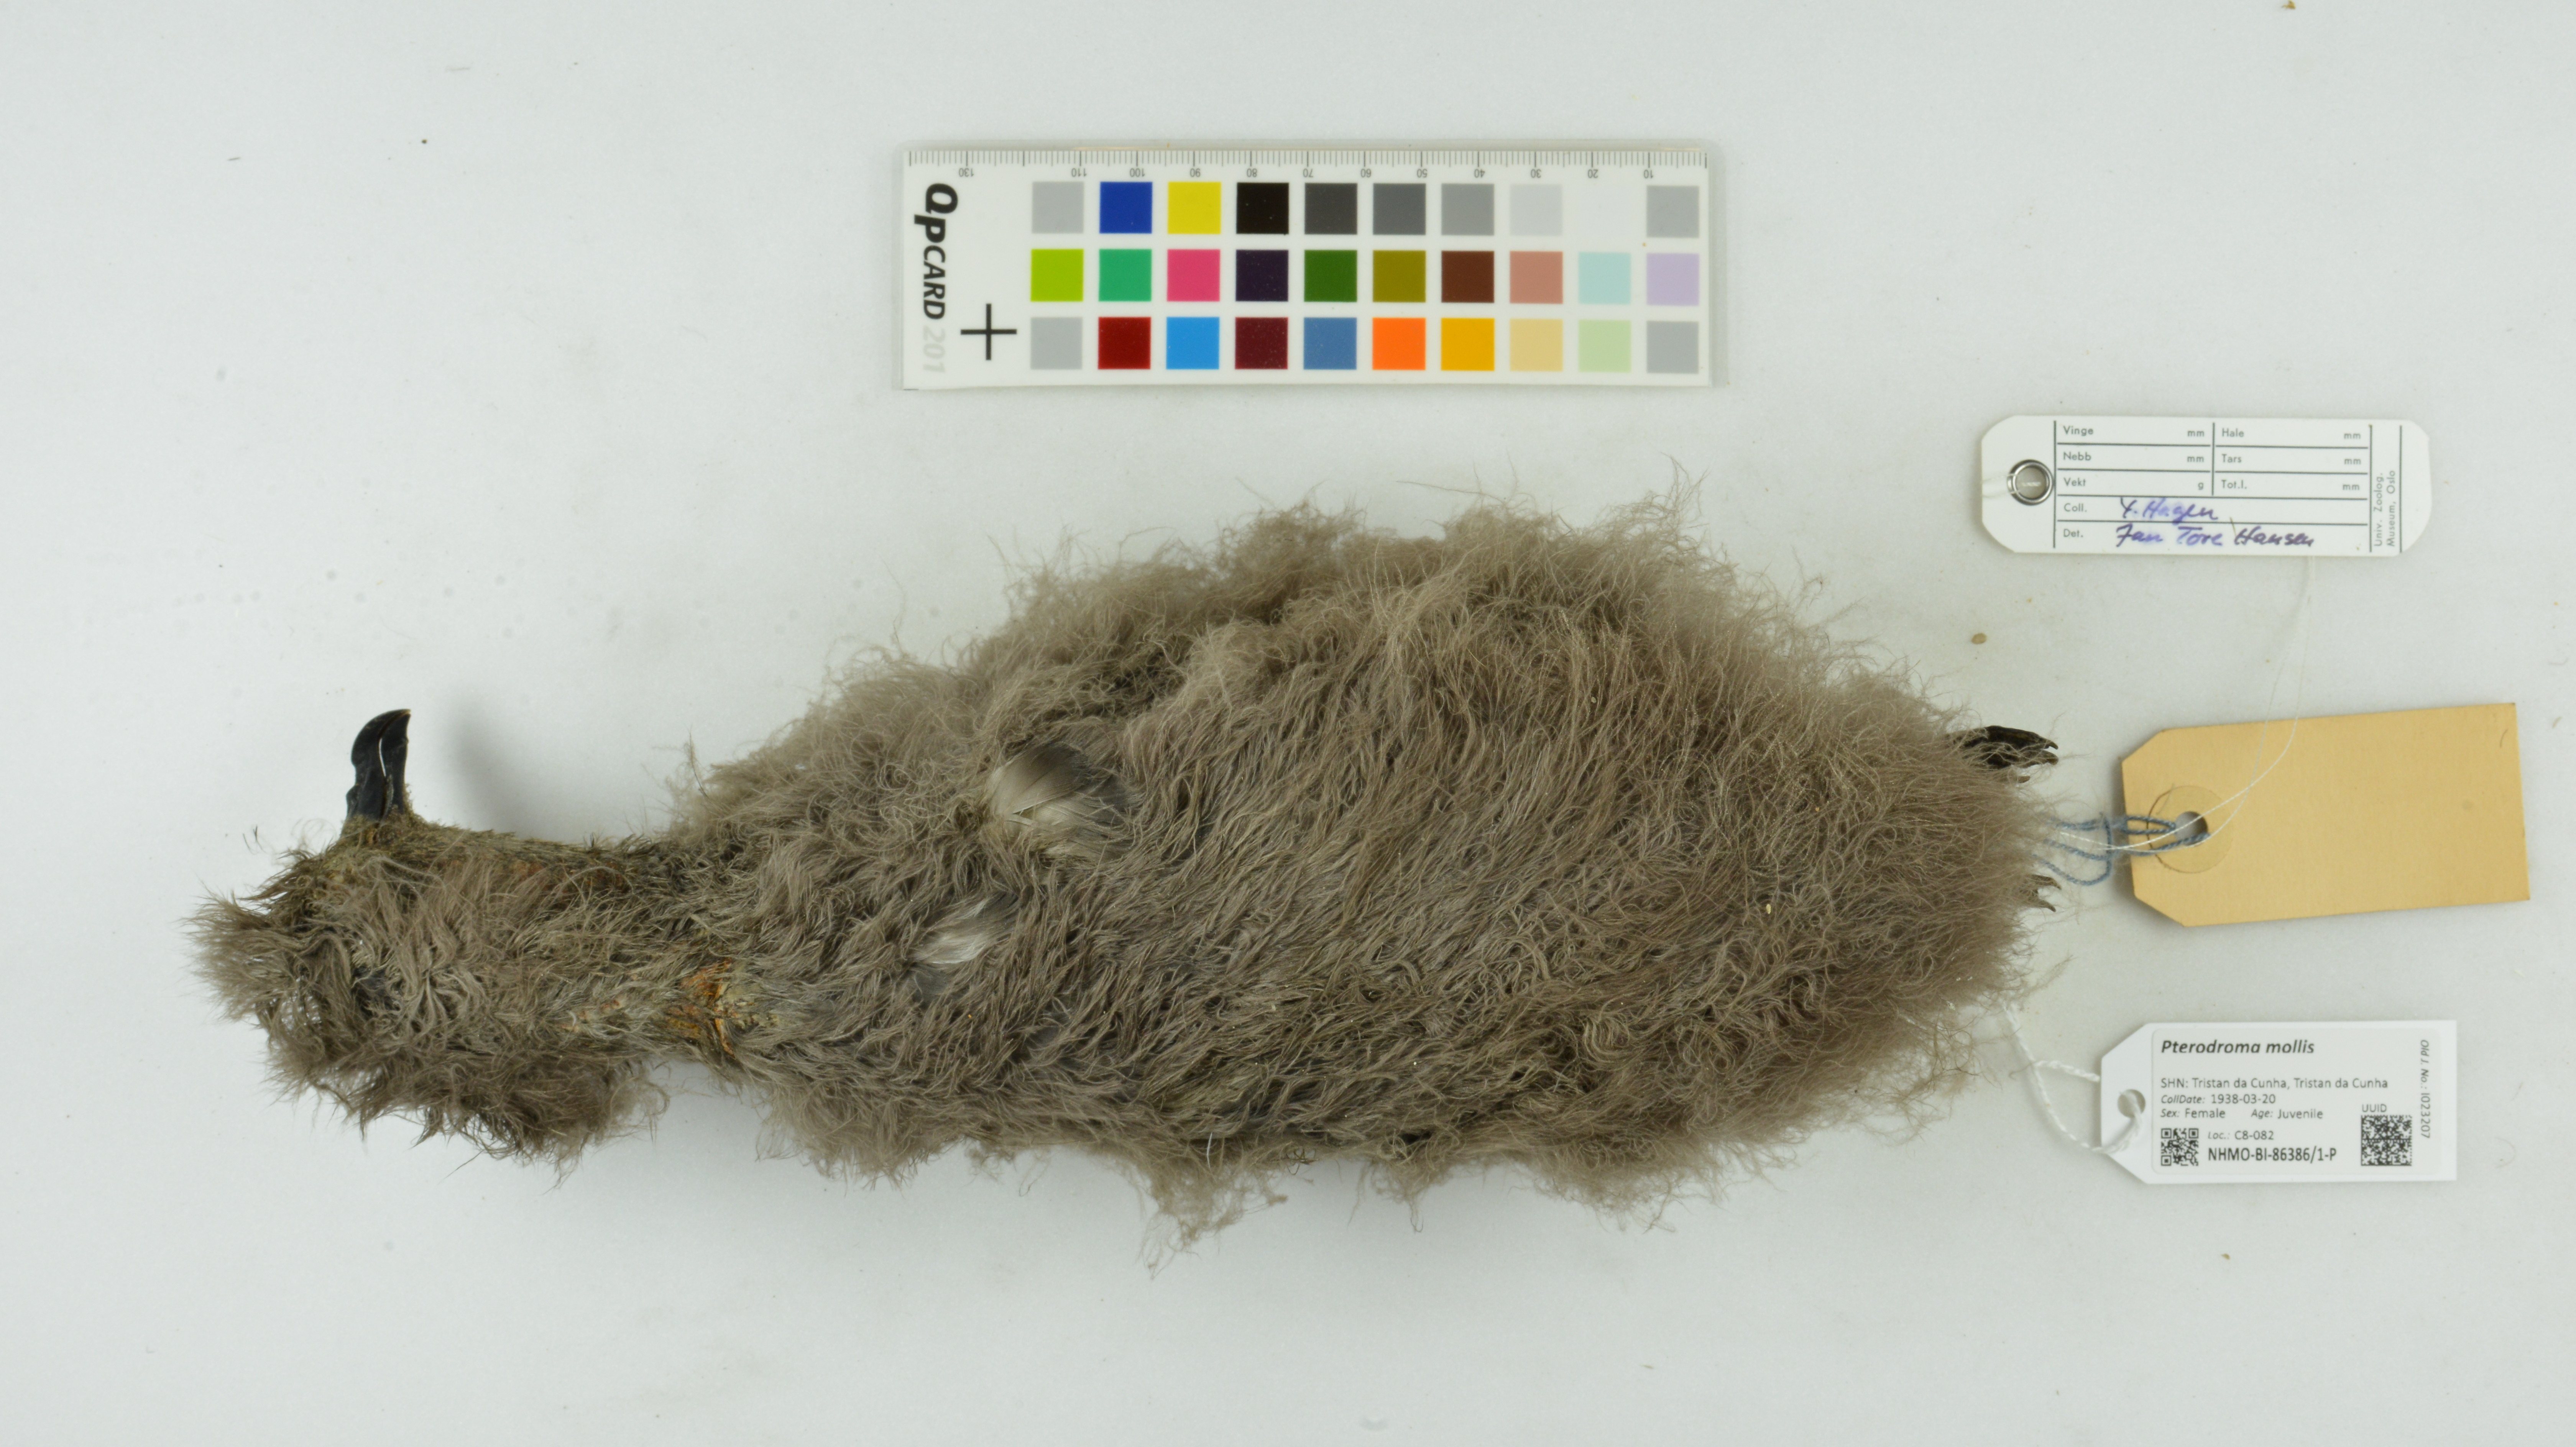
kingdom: Animalia
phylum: Chordata
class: Aves
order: Procellariiformes
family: Procellariidae
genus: Pterodroma
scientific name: Pterodroma mollis
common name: Soft-plumaged petrel
